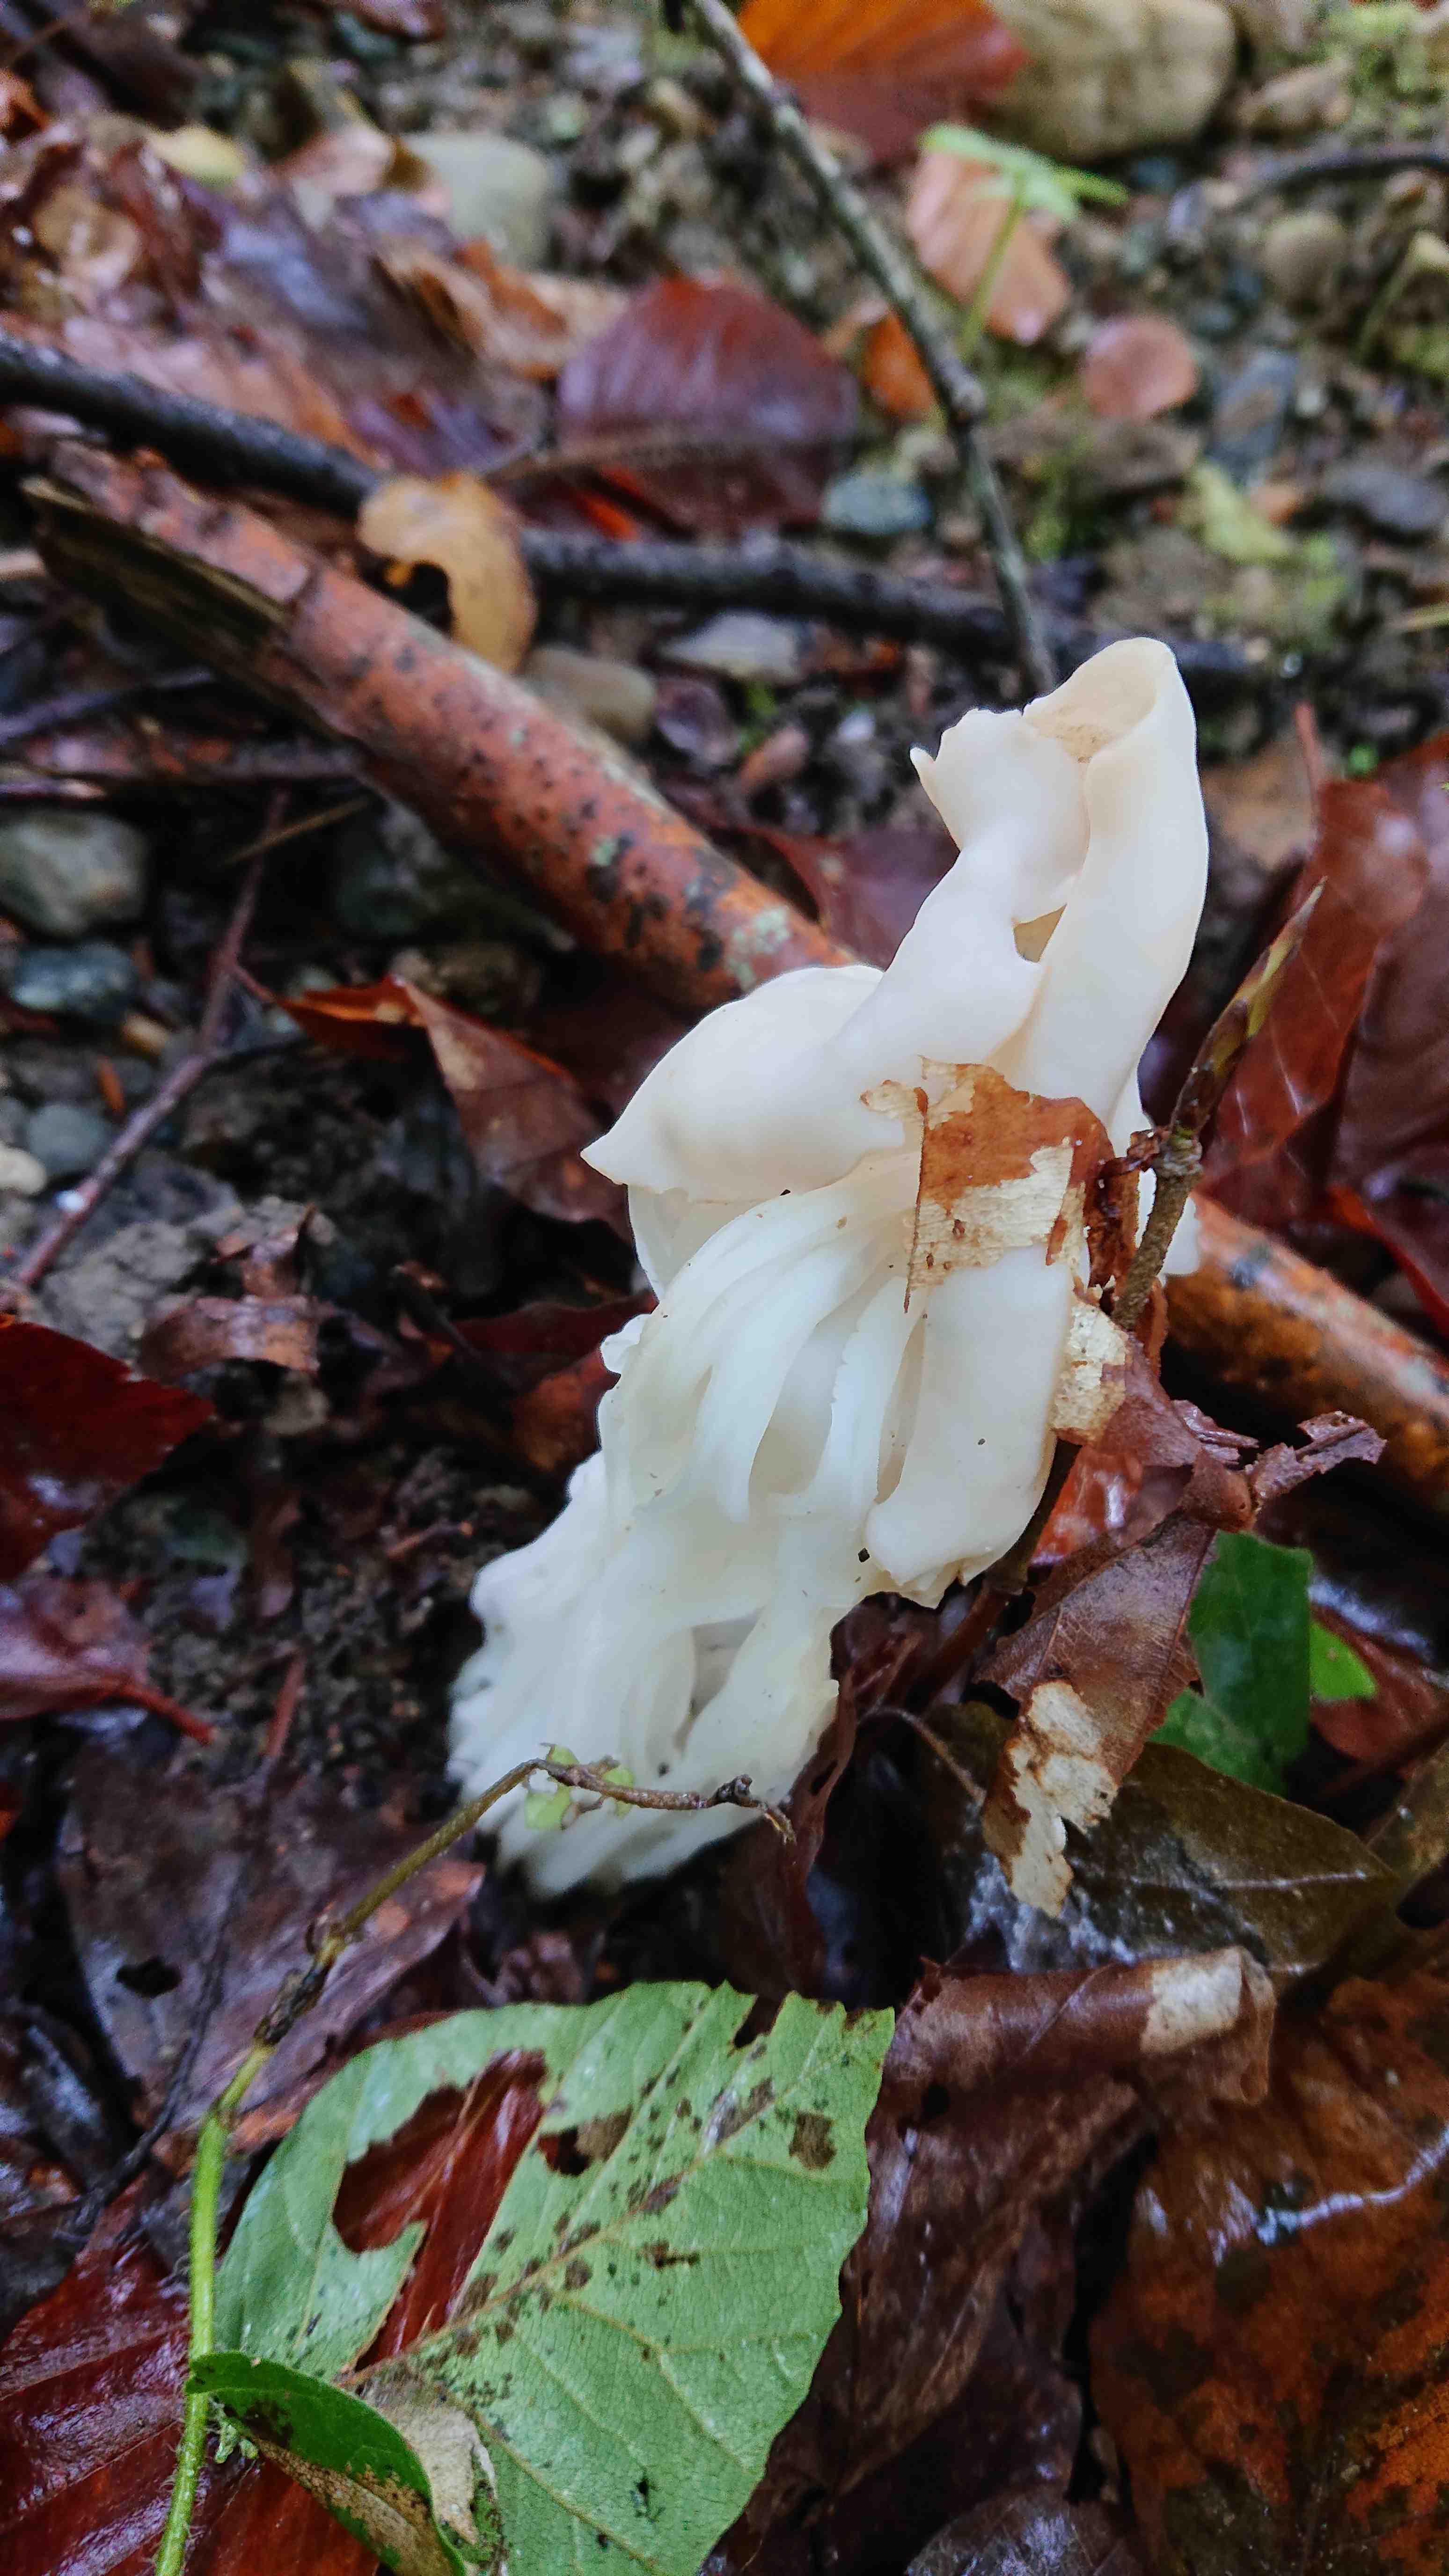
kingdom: Fungi
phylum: Ascomycota
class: Pezizomycetes
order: Pezizales
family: Helvellaceae
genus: Helvella
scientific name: Helvella crispa
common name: kruset foldhat
